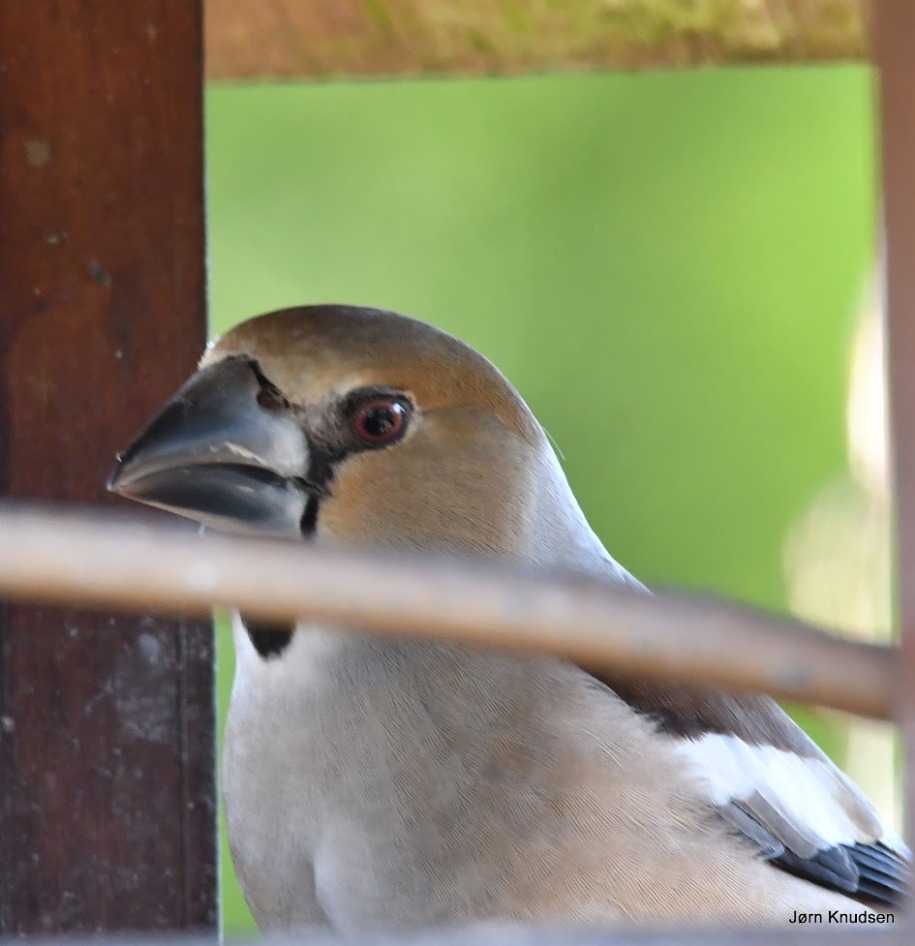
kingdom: Animalia
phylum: Chordata
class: Aves
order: Passeriformes
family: Fringillidae
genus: Coccothraustes
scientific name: Coccothraustes coccothraustes
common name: Kernebider
